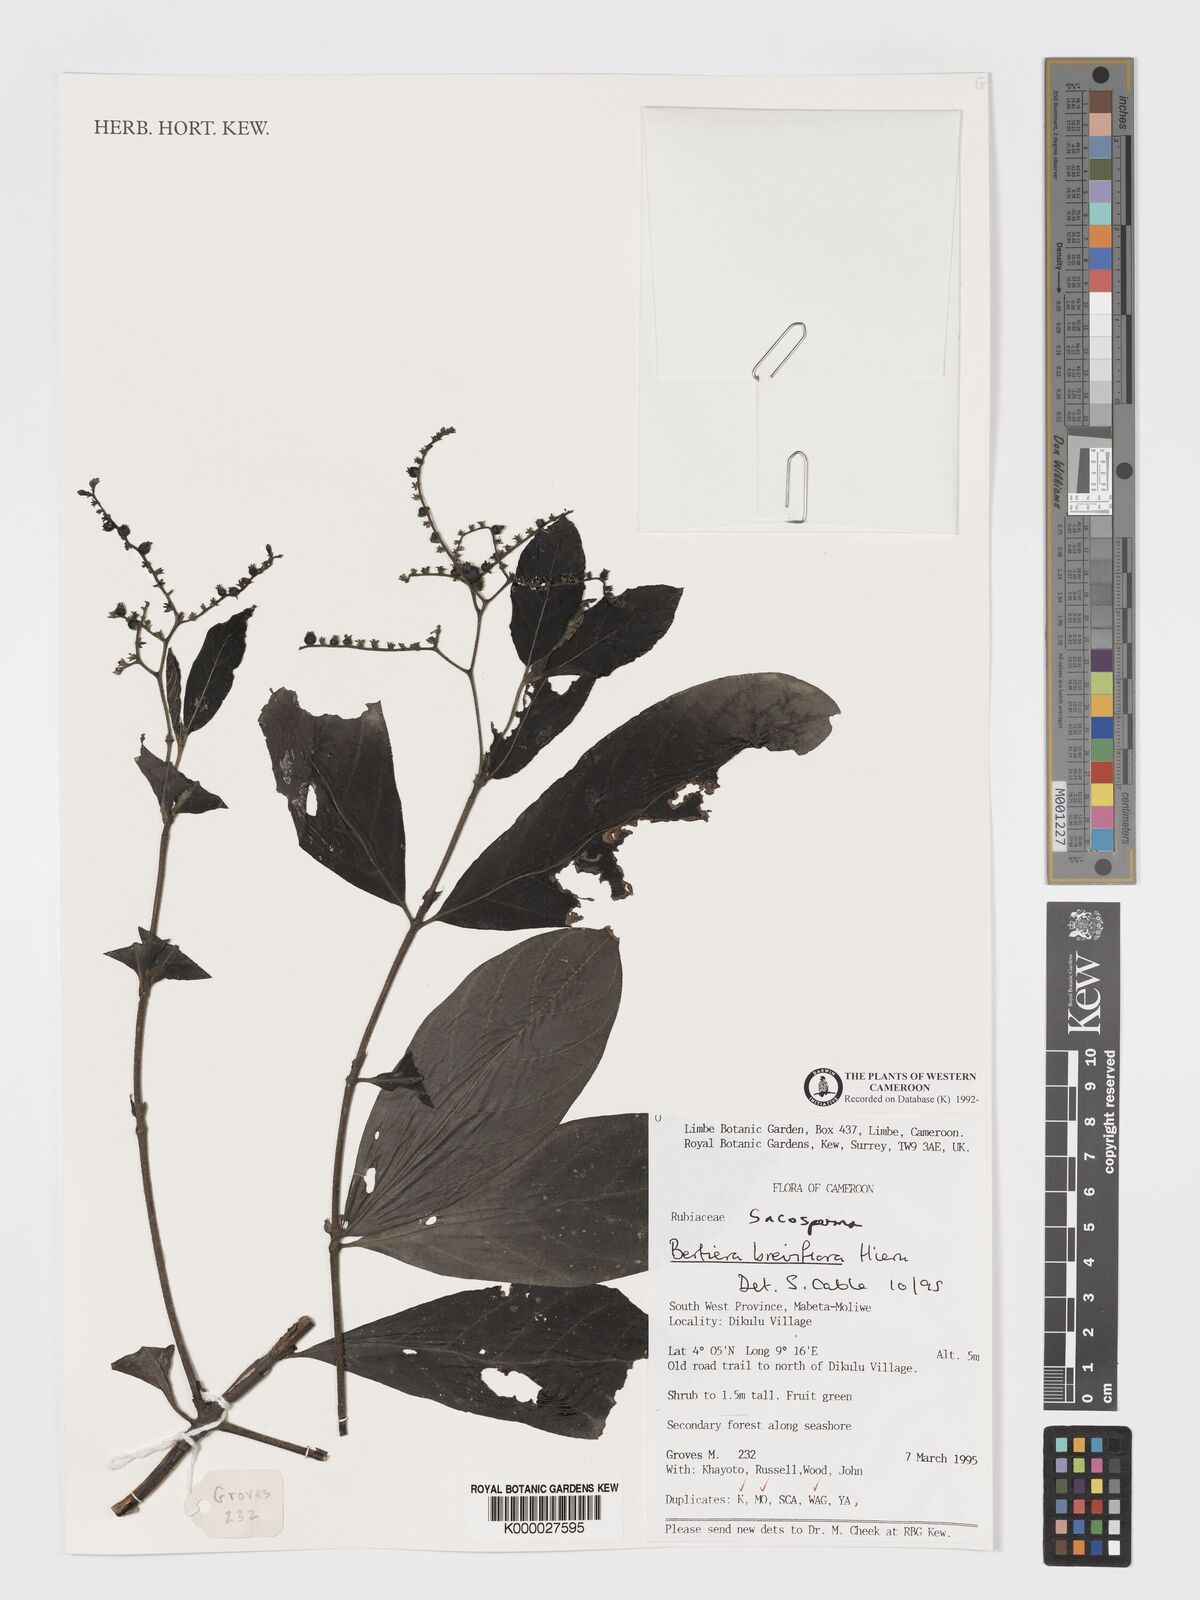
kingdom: Plantae
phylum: Tracheophyta
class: Magnoliopsida
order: Gentianales
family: Rubiaceae
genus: Bertiera
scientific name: Bertiera breviflora
